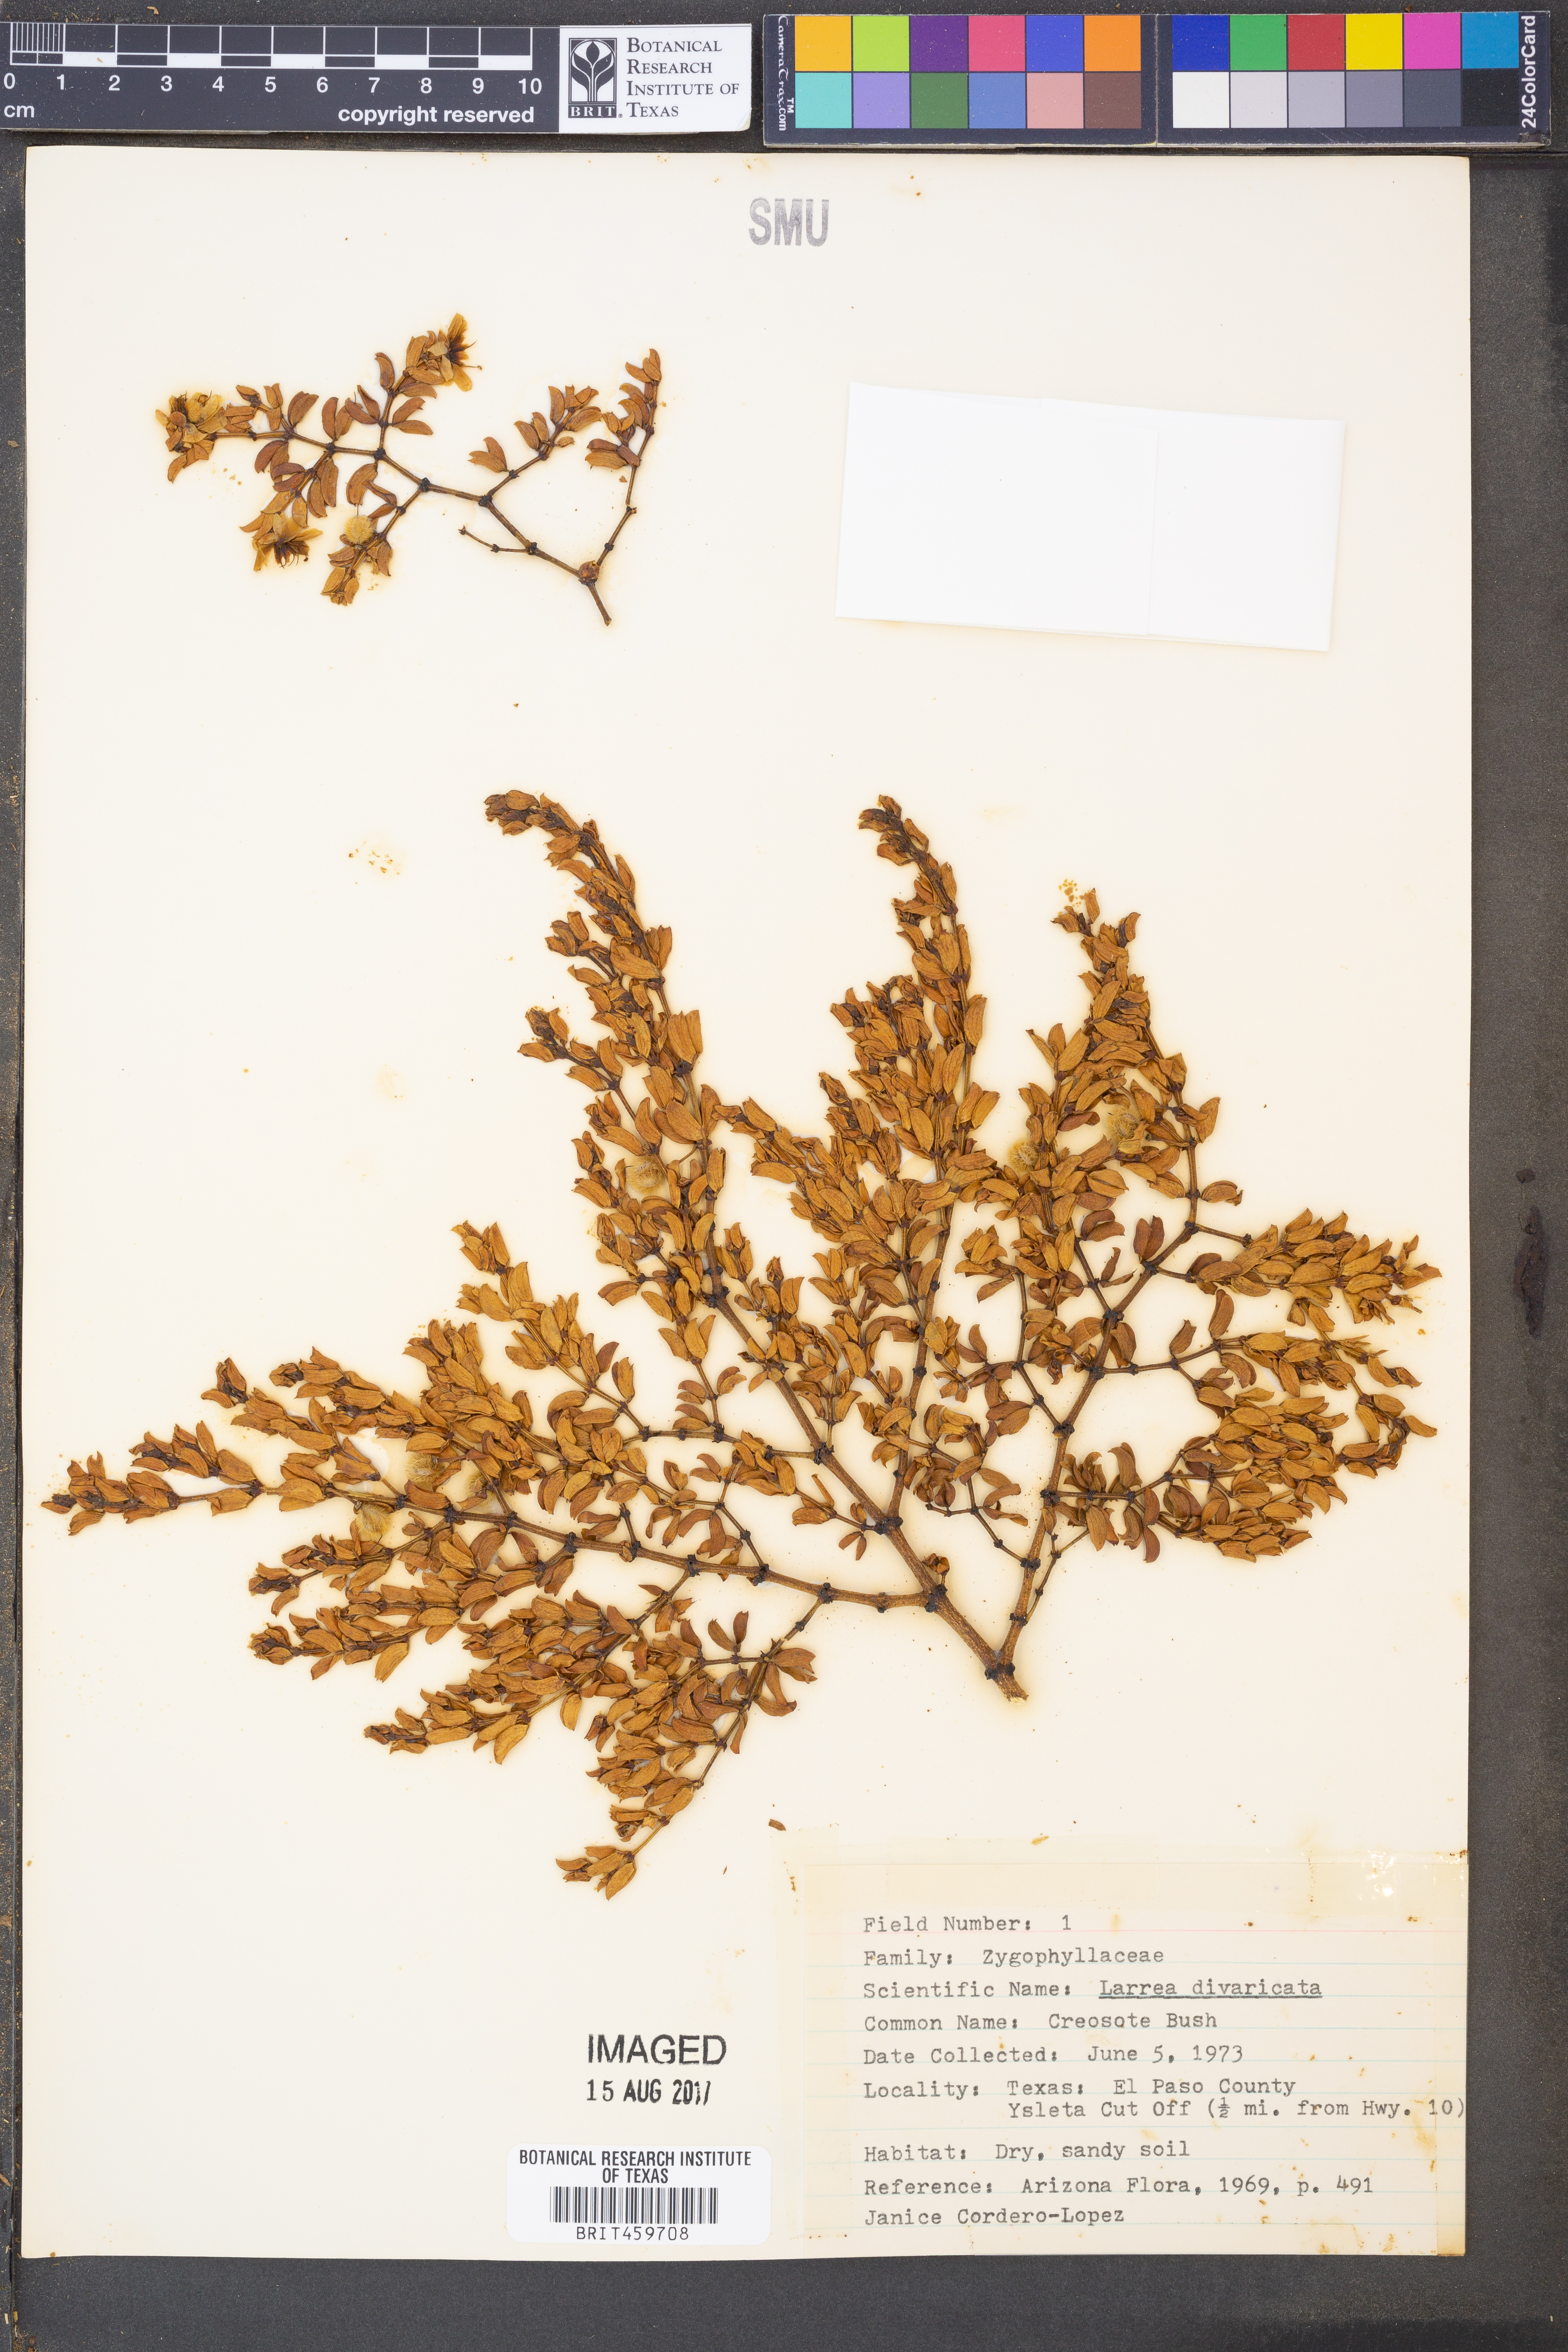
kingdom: Plantae
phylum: Tracheophyta
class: Magnoliopsida
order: Zygophyllales
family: Zygophyllaceae
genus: Larrea
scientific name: Larrea divaricata
